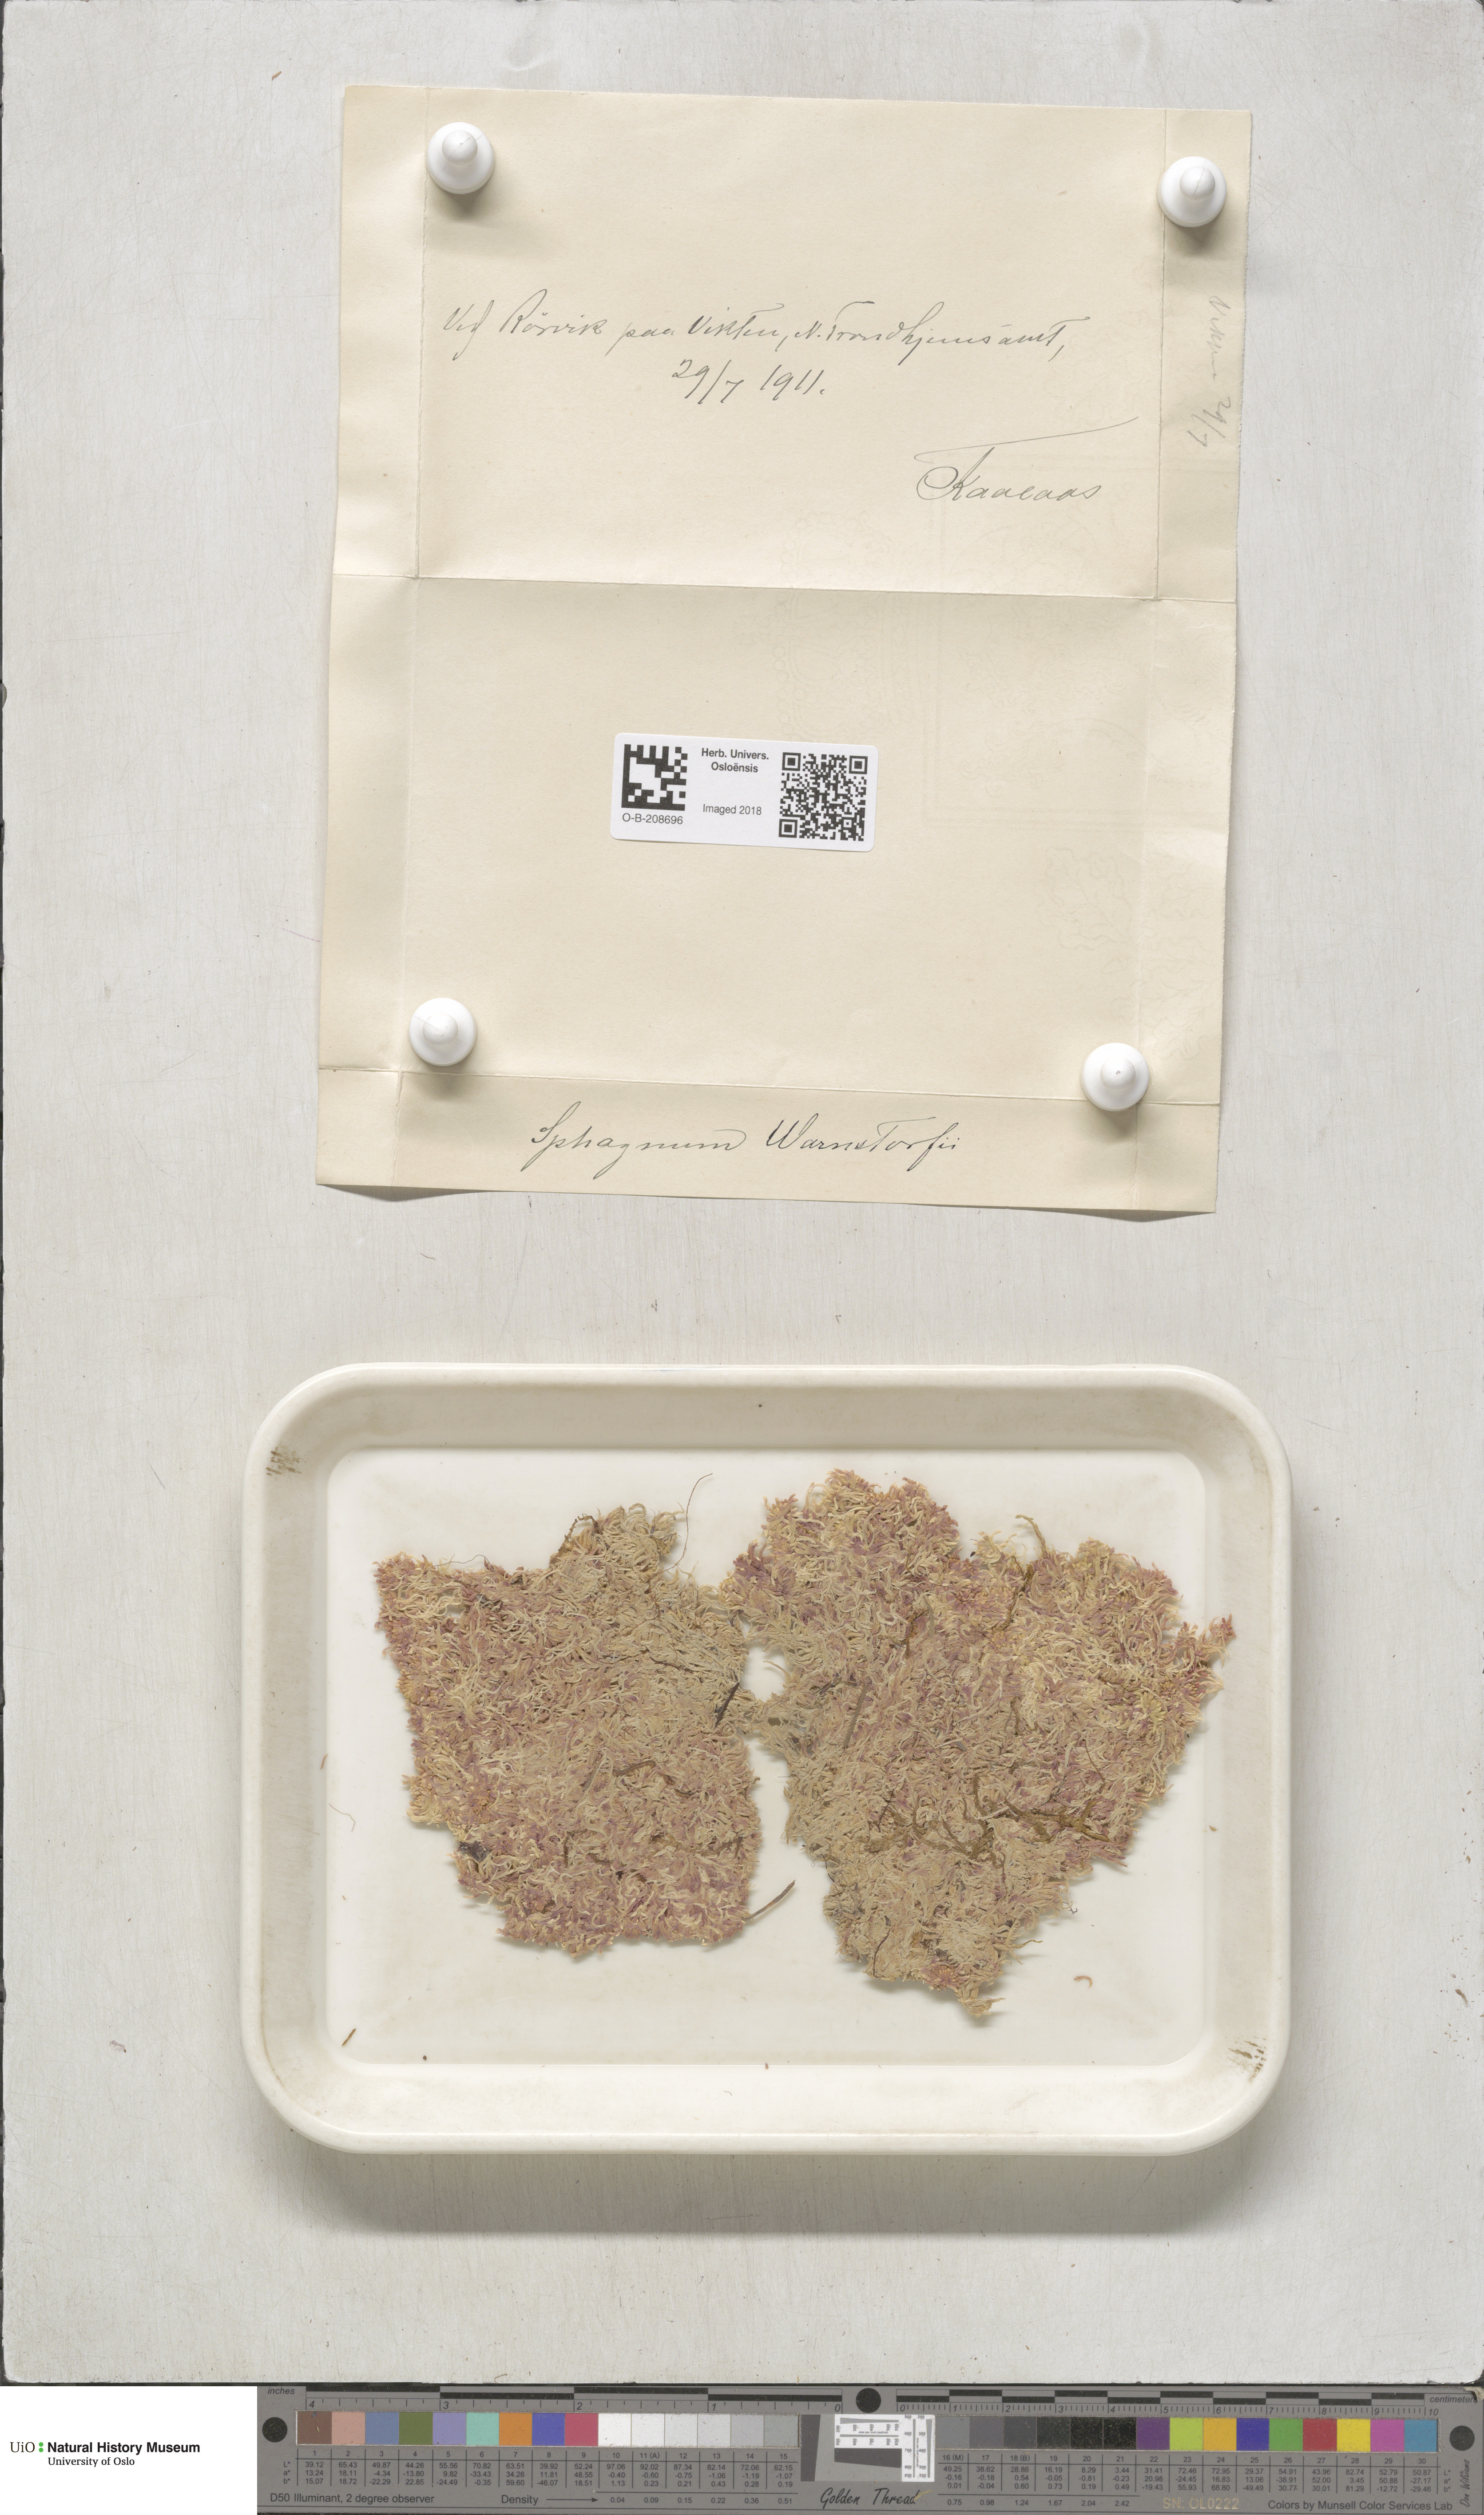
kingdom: Plantae
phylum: Bryophyta
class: Sphagnopsida
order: Sphagnales
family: Sphagnaceae
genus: Sphagnum
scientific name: Sphagnum warnstorfii
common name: Warnstorf's peat moss
